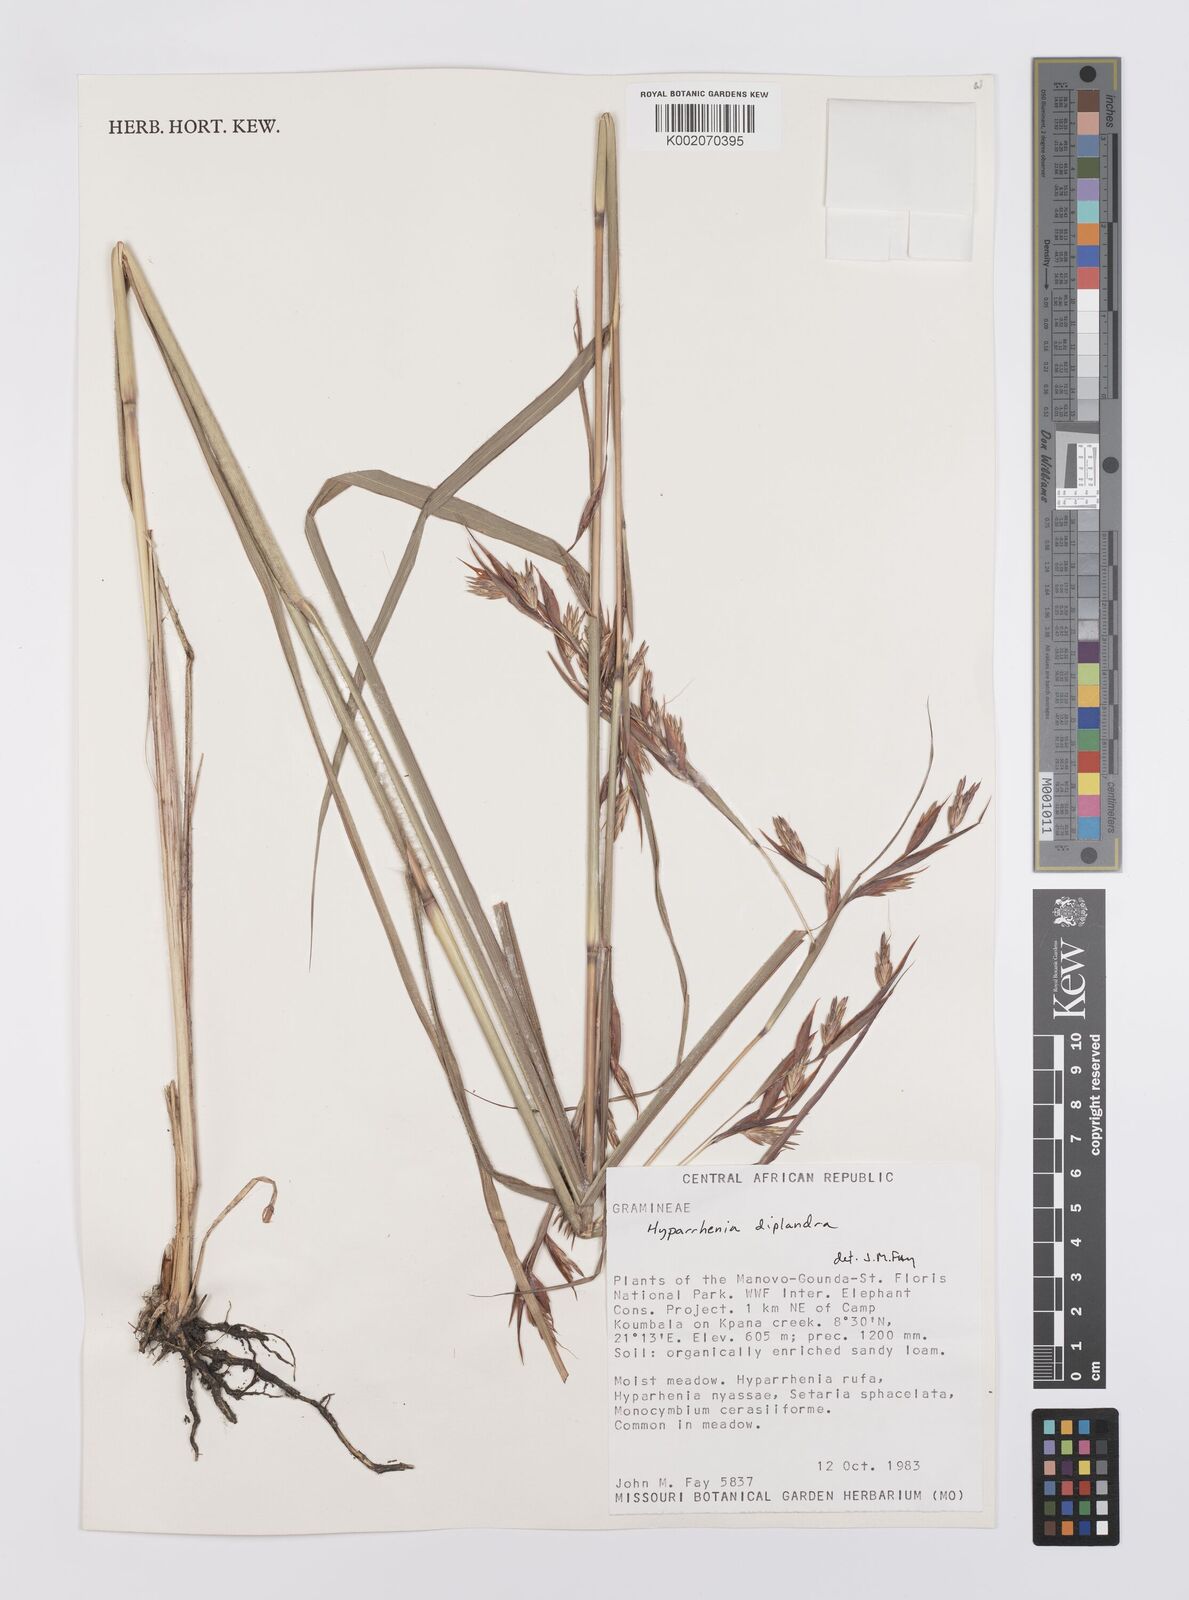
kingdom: Plantae
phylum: Tracheophyta
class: Liliopsida
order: Poales
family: Poaceae
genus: Hyparrhenia
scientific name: Hyparrhenia diplandra
